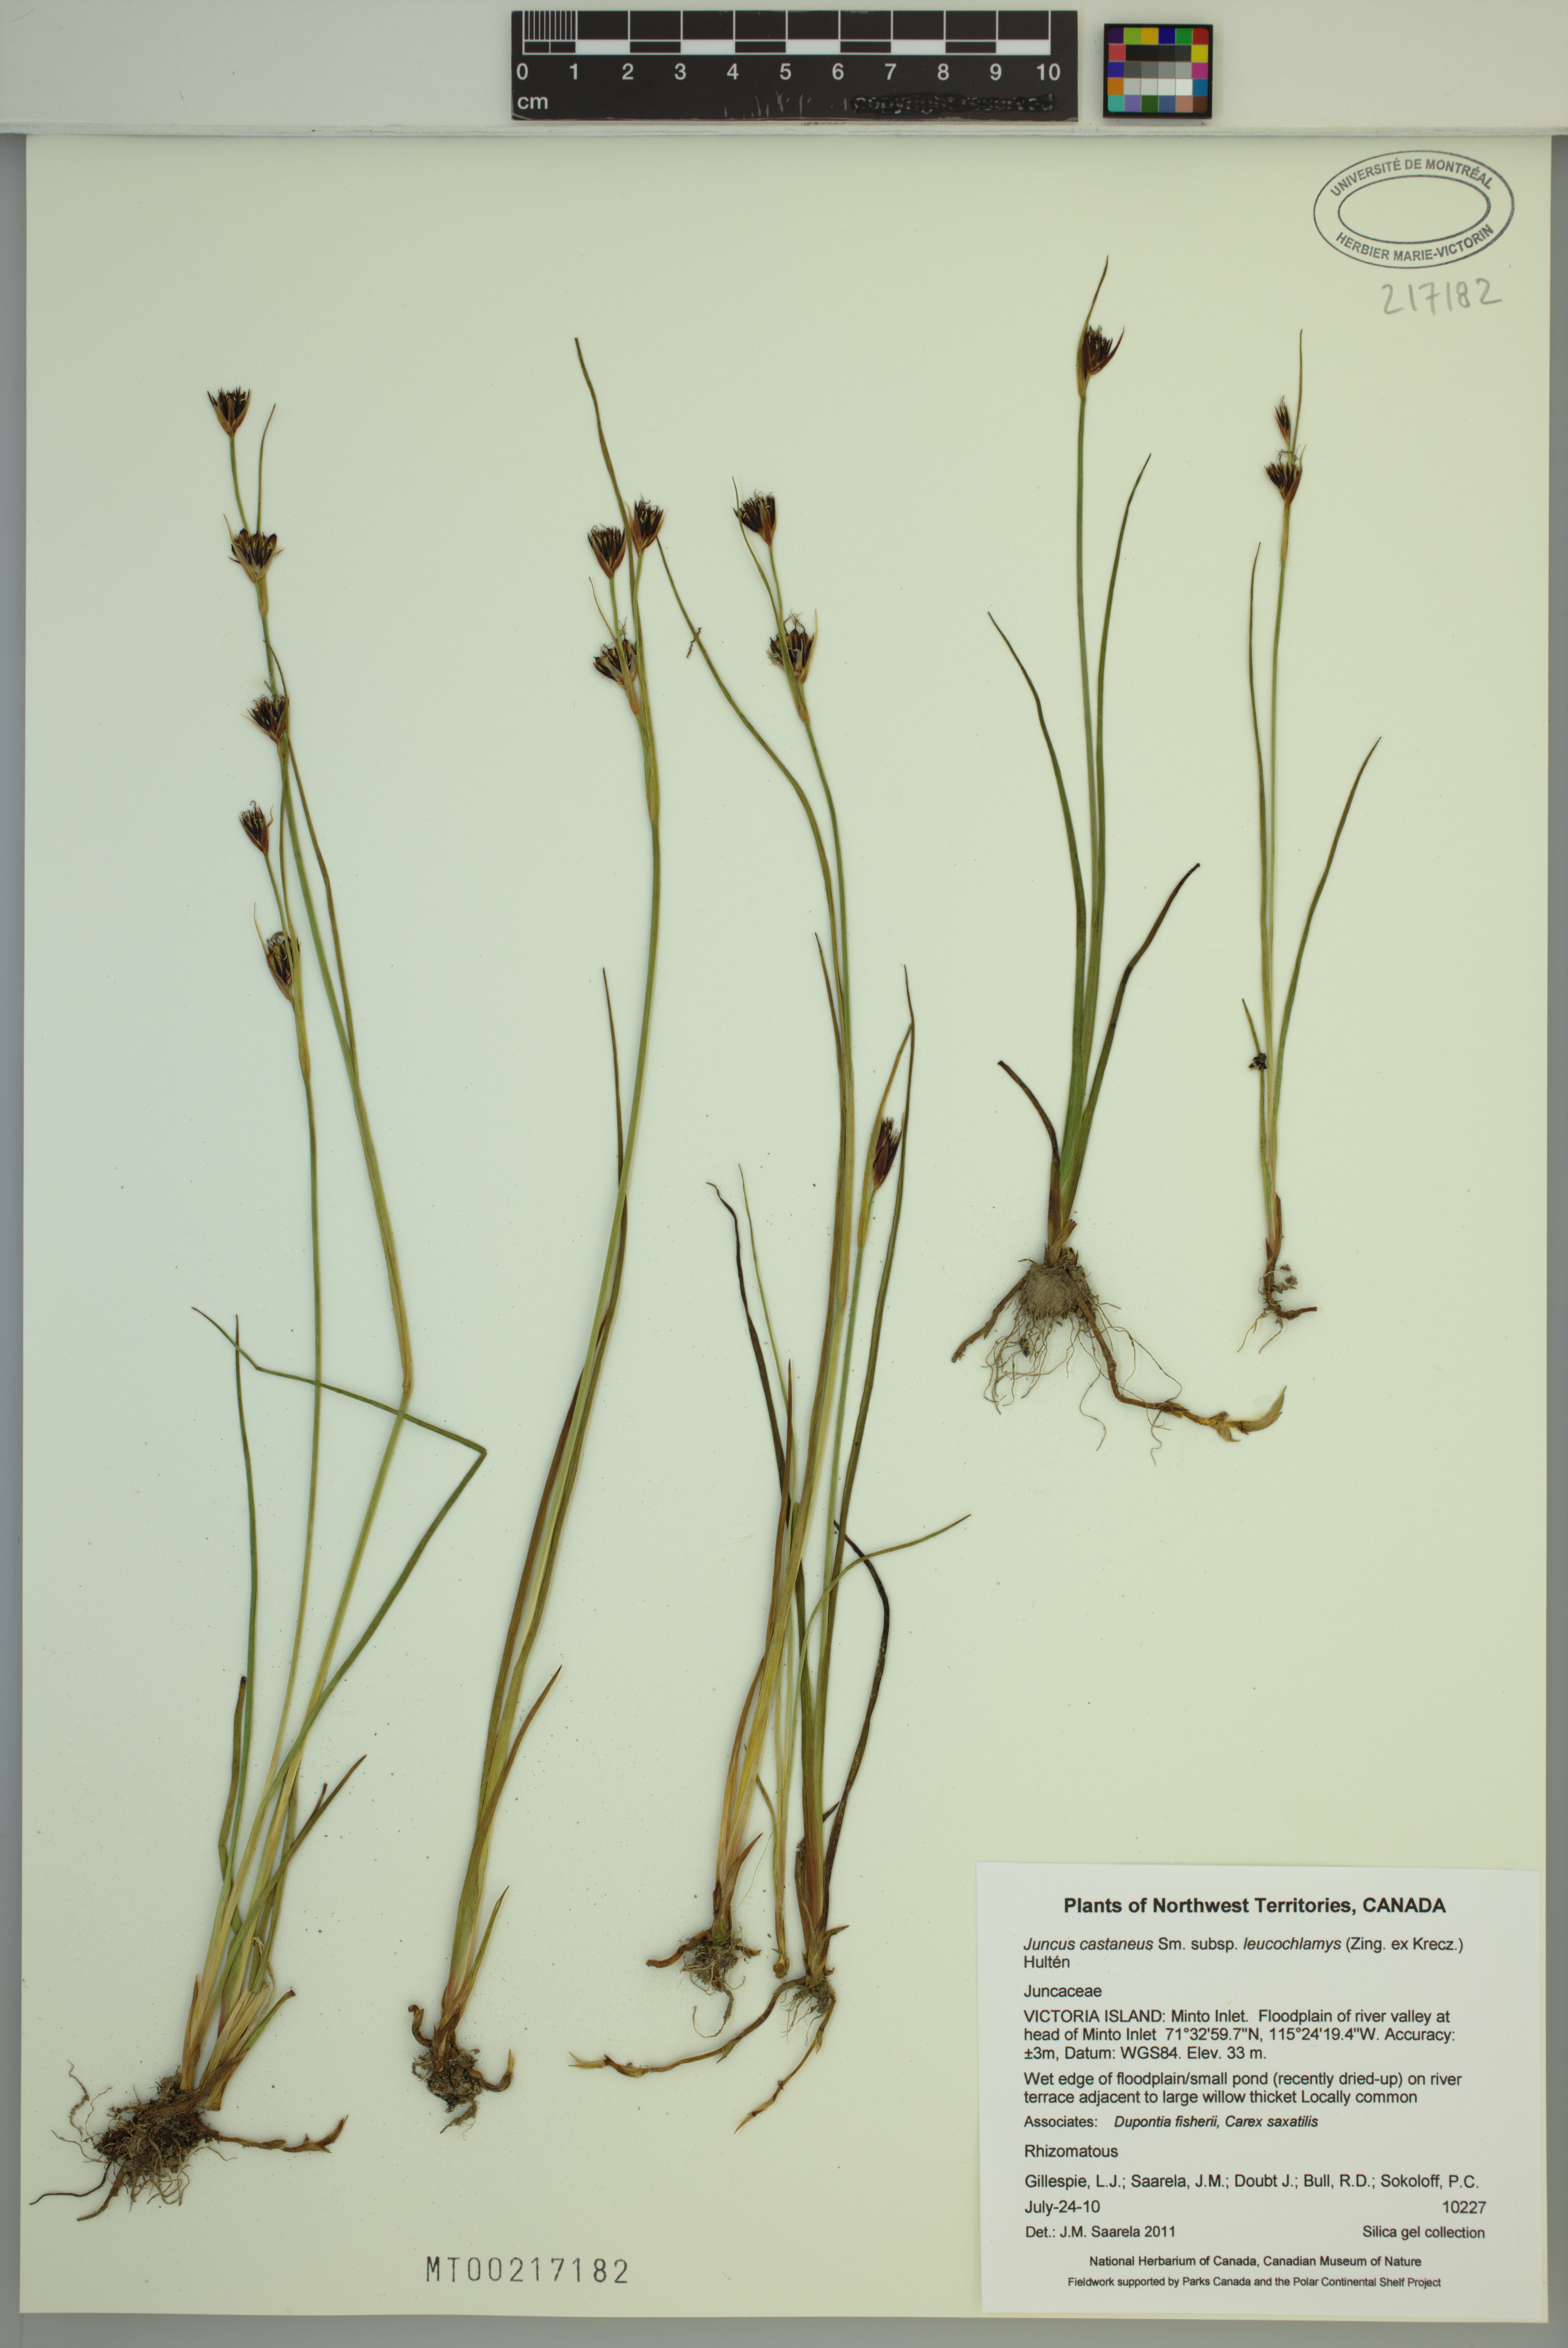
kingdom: Plantae
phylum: Tracheophyta
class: Liliopsida
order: Poales
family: Juncaceae
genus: Juncus
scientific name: Juncus castaneus
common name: Chestnut rush
